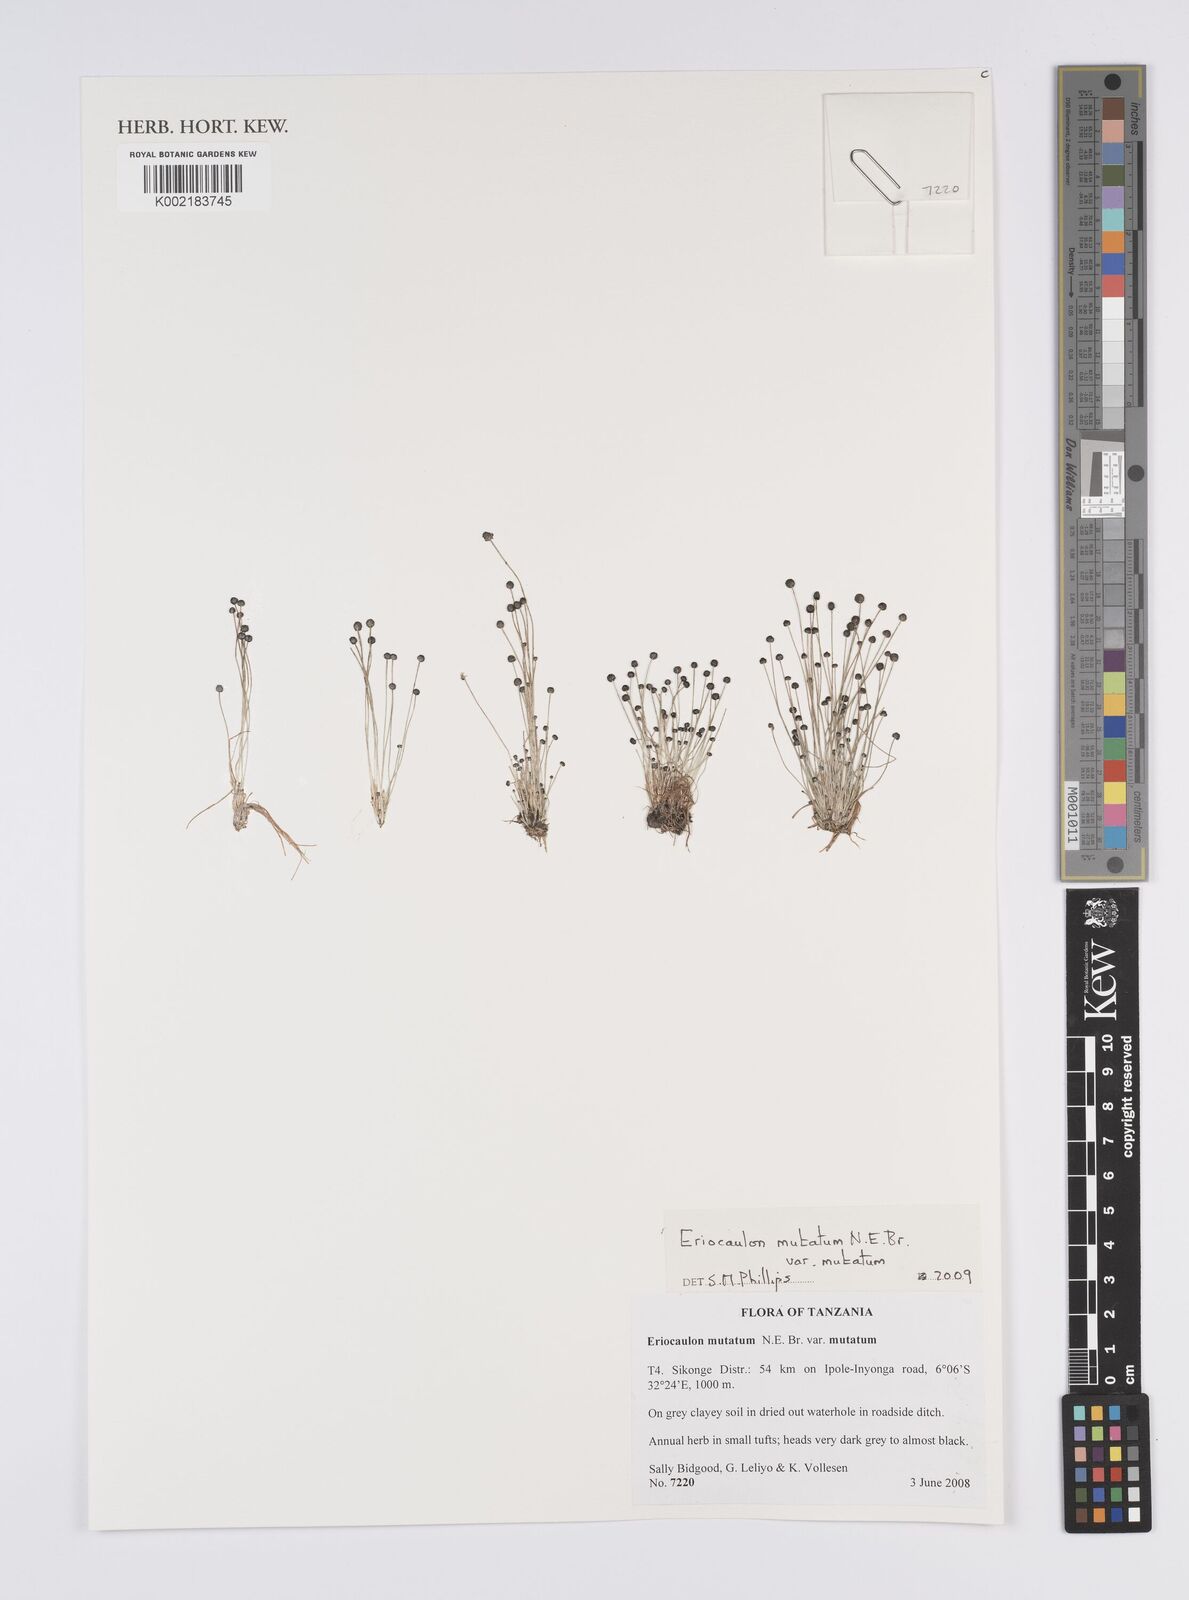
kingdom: Plantae
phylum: Tracheophyta
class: Liliopsida
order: Poales
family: Eriocaulaceae
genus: Eriocaulon
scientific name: Eriocaulon mutatum
